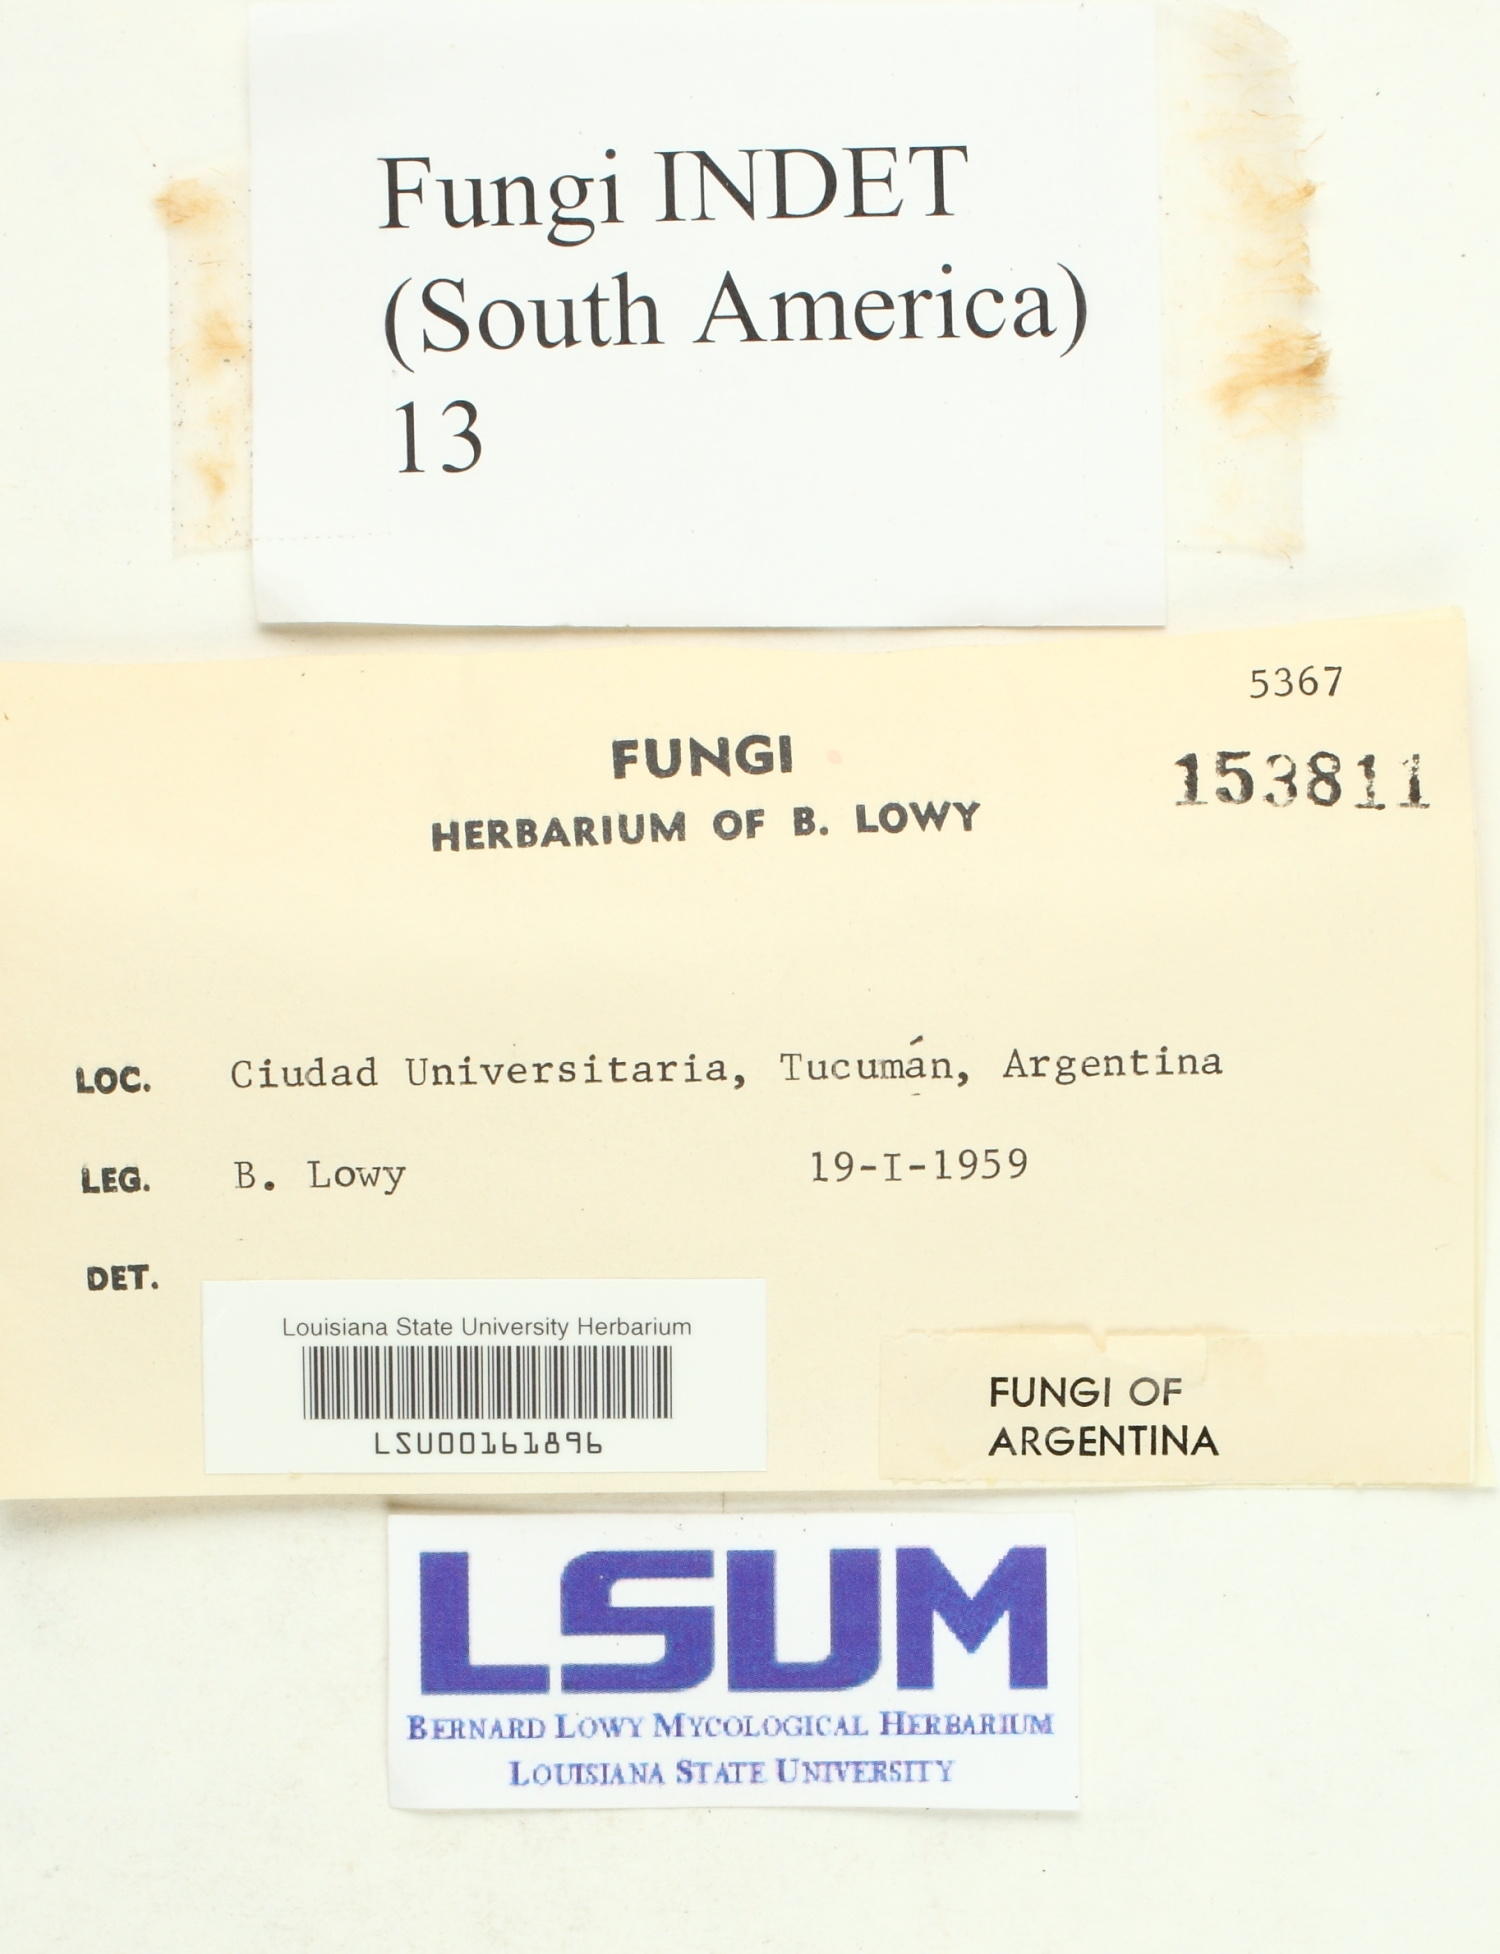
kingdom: Fungi
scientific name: Fungi
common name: Fungi
